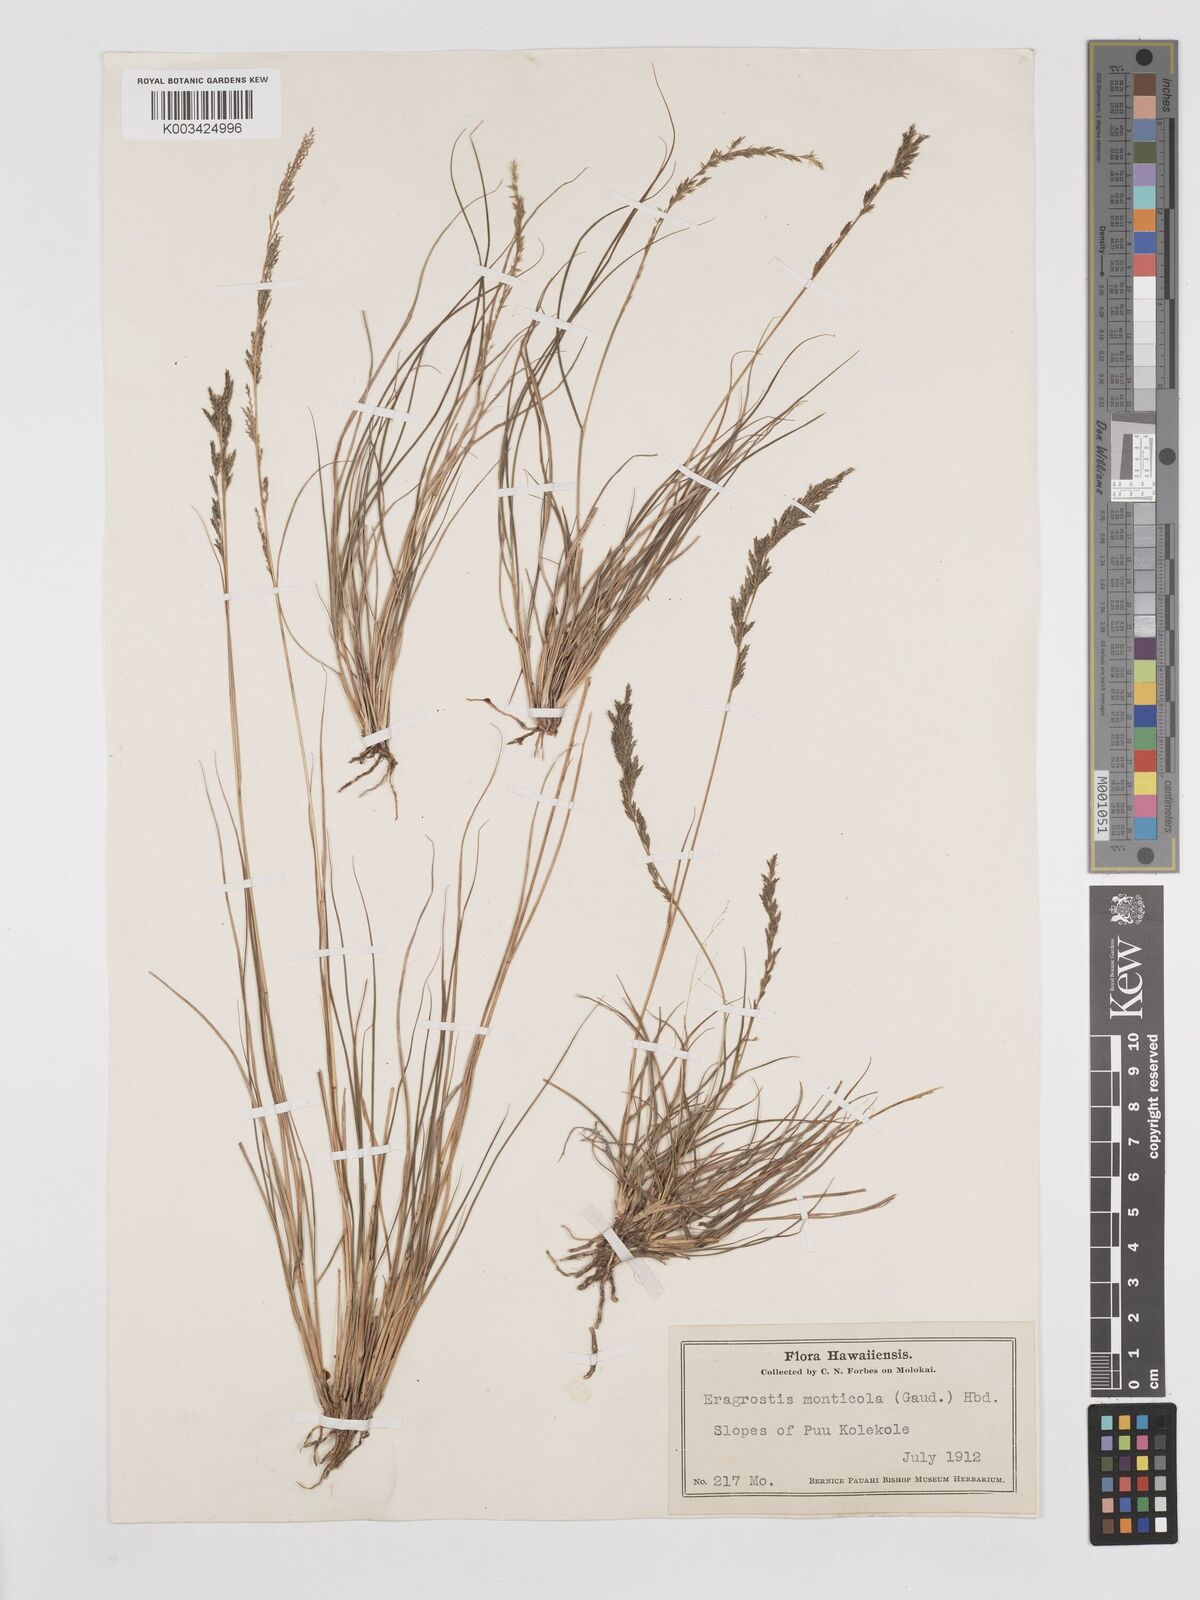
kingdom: Plantae
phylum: Tracheophyta
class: Liliopsida
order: Poales
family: Poaceae
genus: Eragrostis
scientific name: Eragrostis monticola
